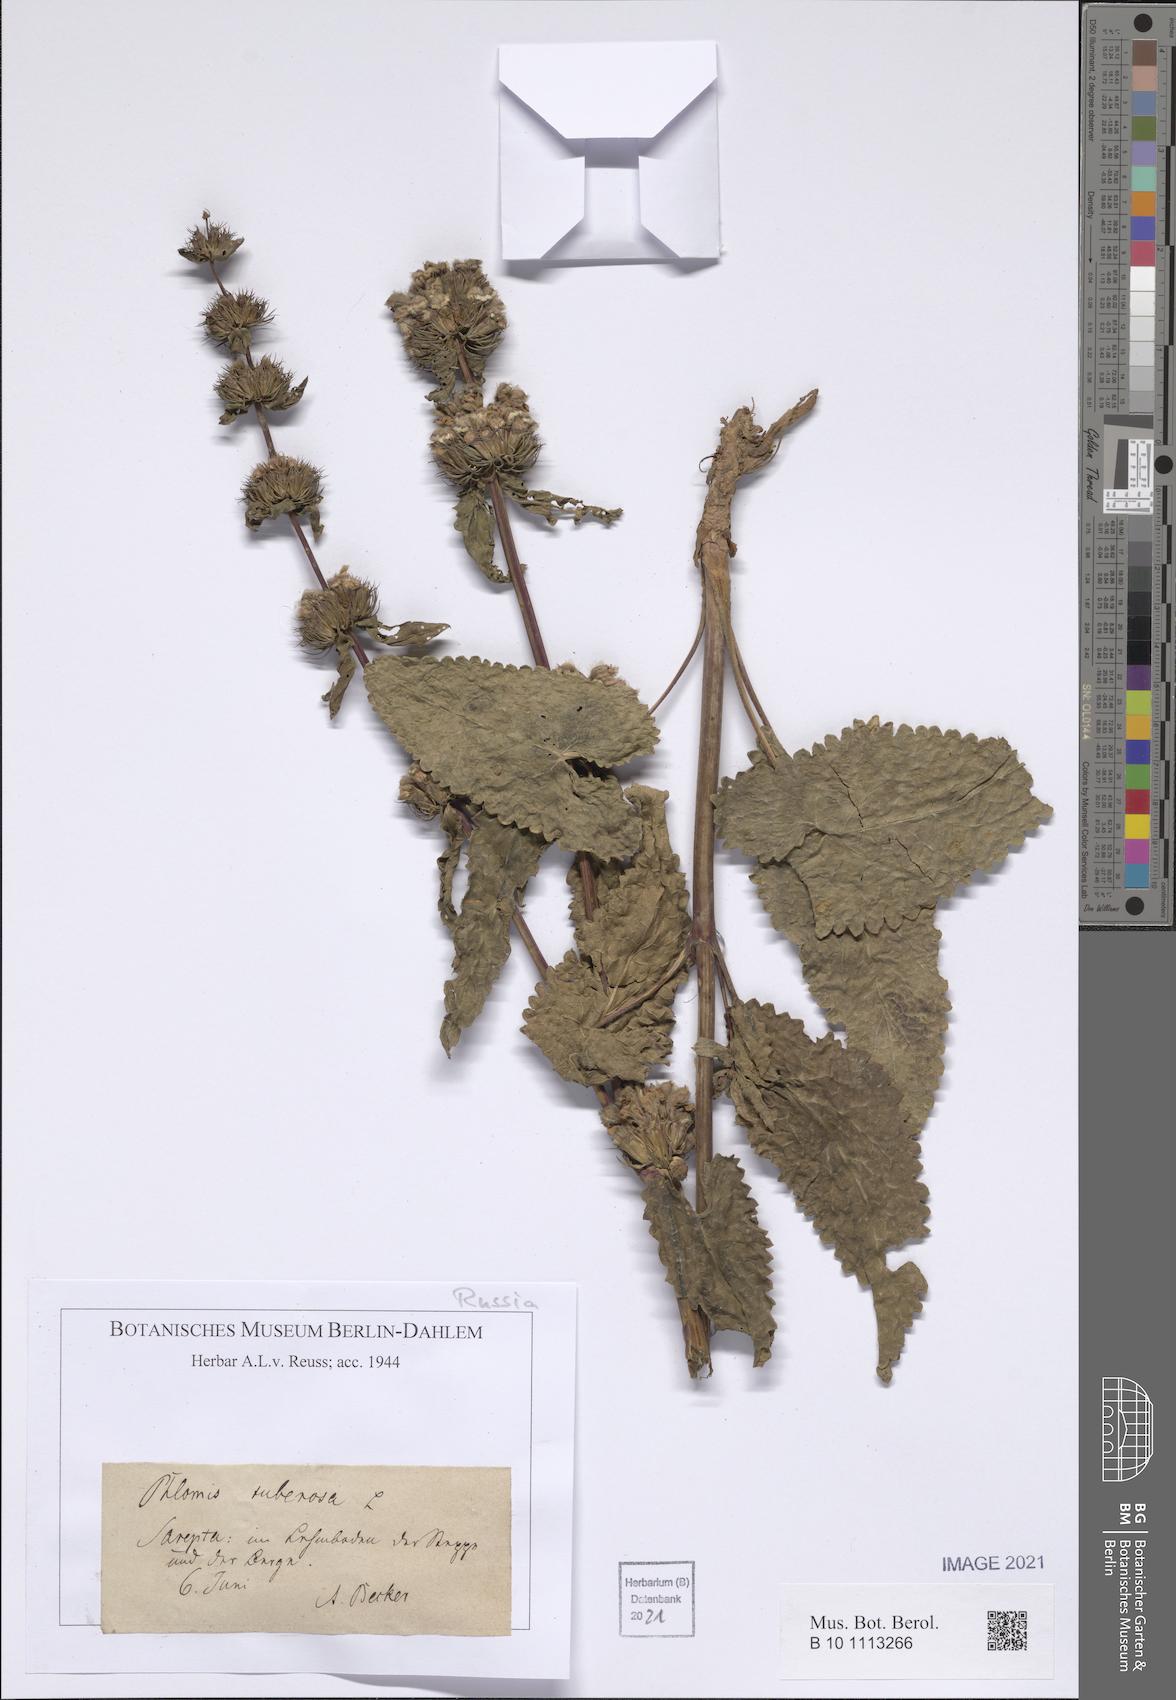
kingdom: Plantae
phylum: Tracheophyta
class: Magnoliopsida
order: Lamiales
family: Lamiaceae
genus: Phlomoides
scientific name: Phlomoides tuberosa
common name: Tuberous jerusalem sage
